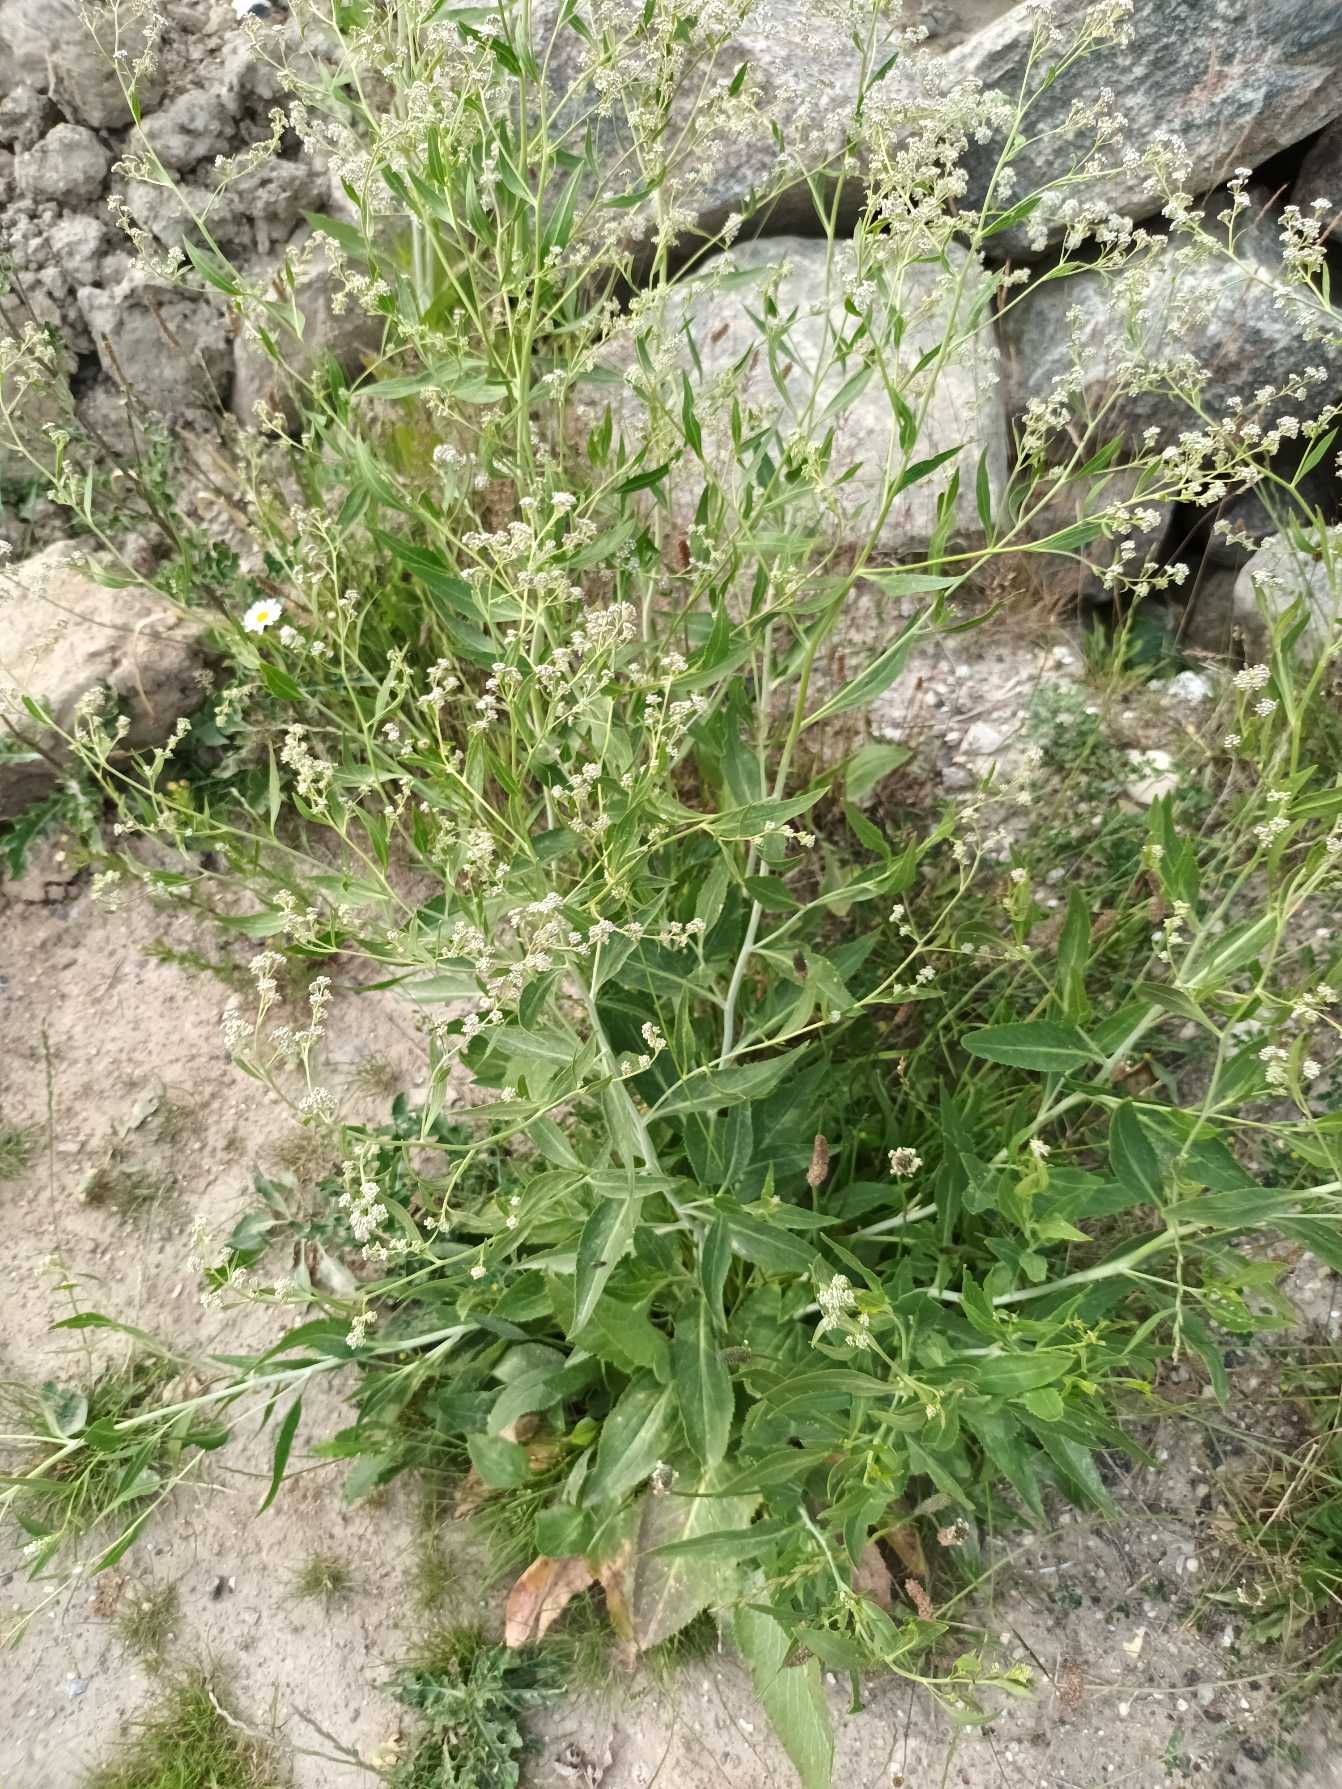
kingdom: Plantae
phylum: Tracheophyta
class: Magnoliopsida
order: Brassicales
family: Brassicaceae
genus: Lepidium
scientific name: Lepidium latifolium
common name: Strand-karse
